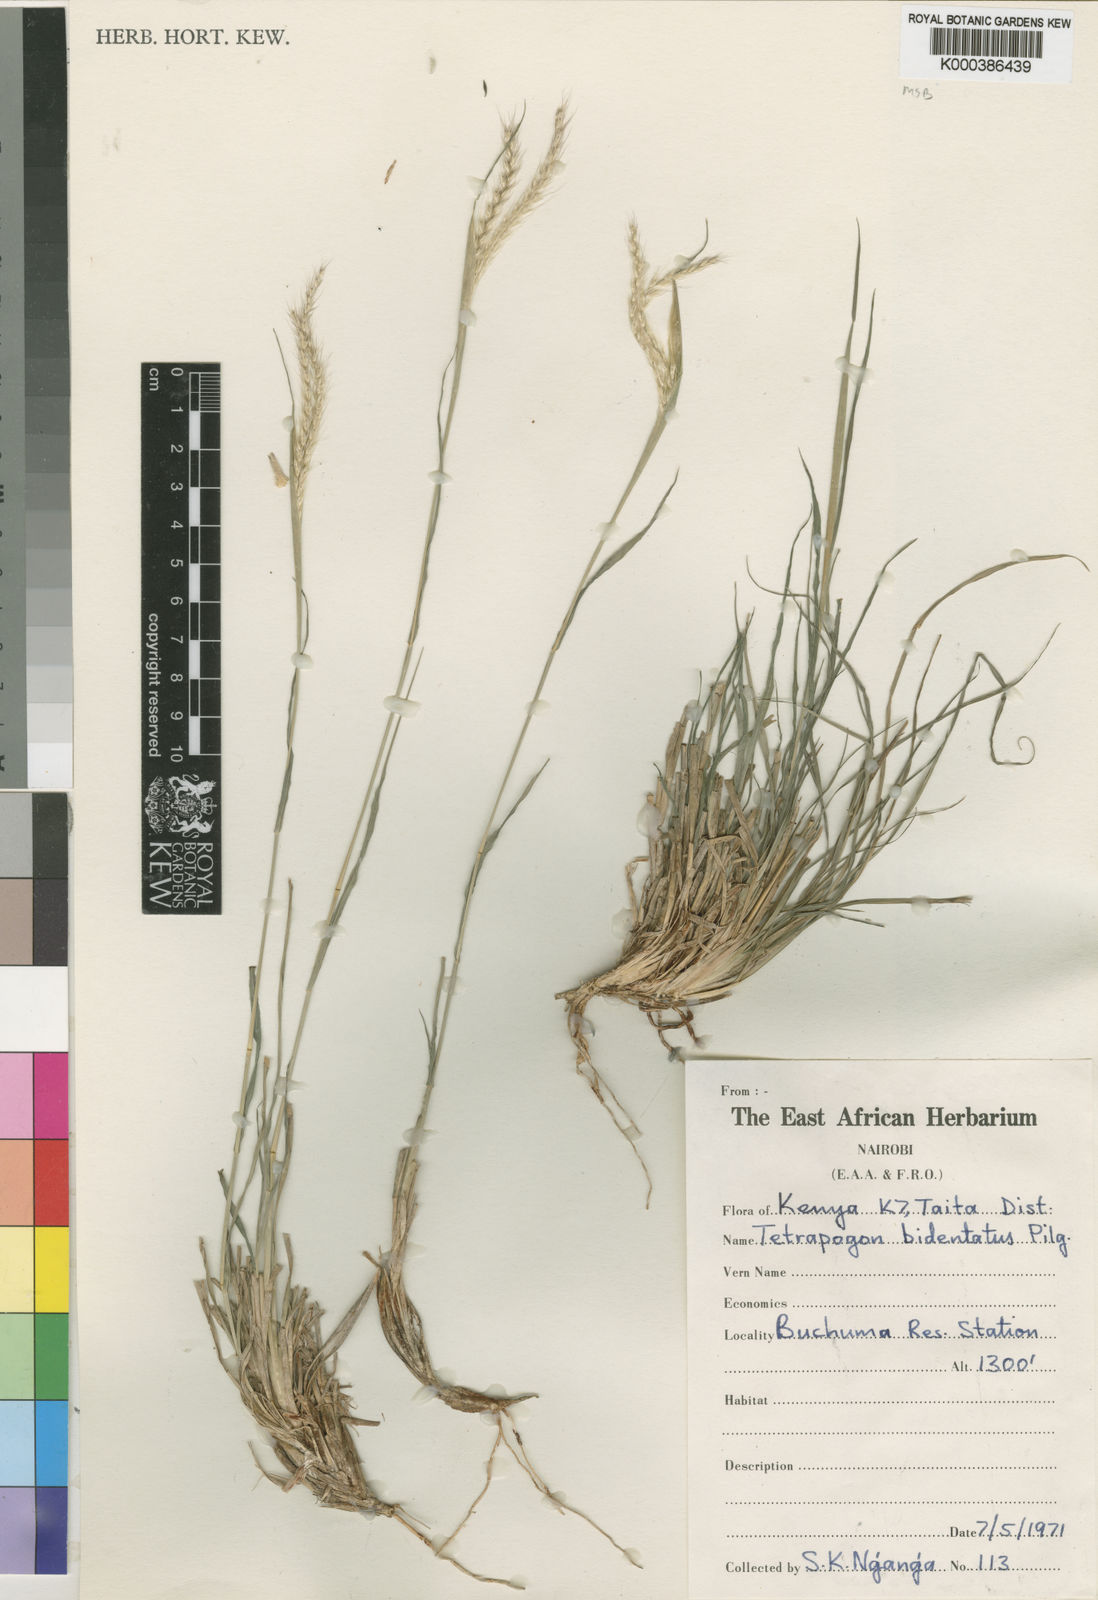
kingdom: Plantae
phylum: Tracheophyta
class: Liliopsida
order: Poales
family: Poaceae
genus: Tetrapogon
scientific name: Tetrapogon bidentatus
